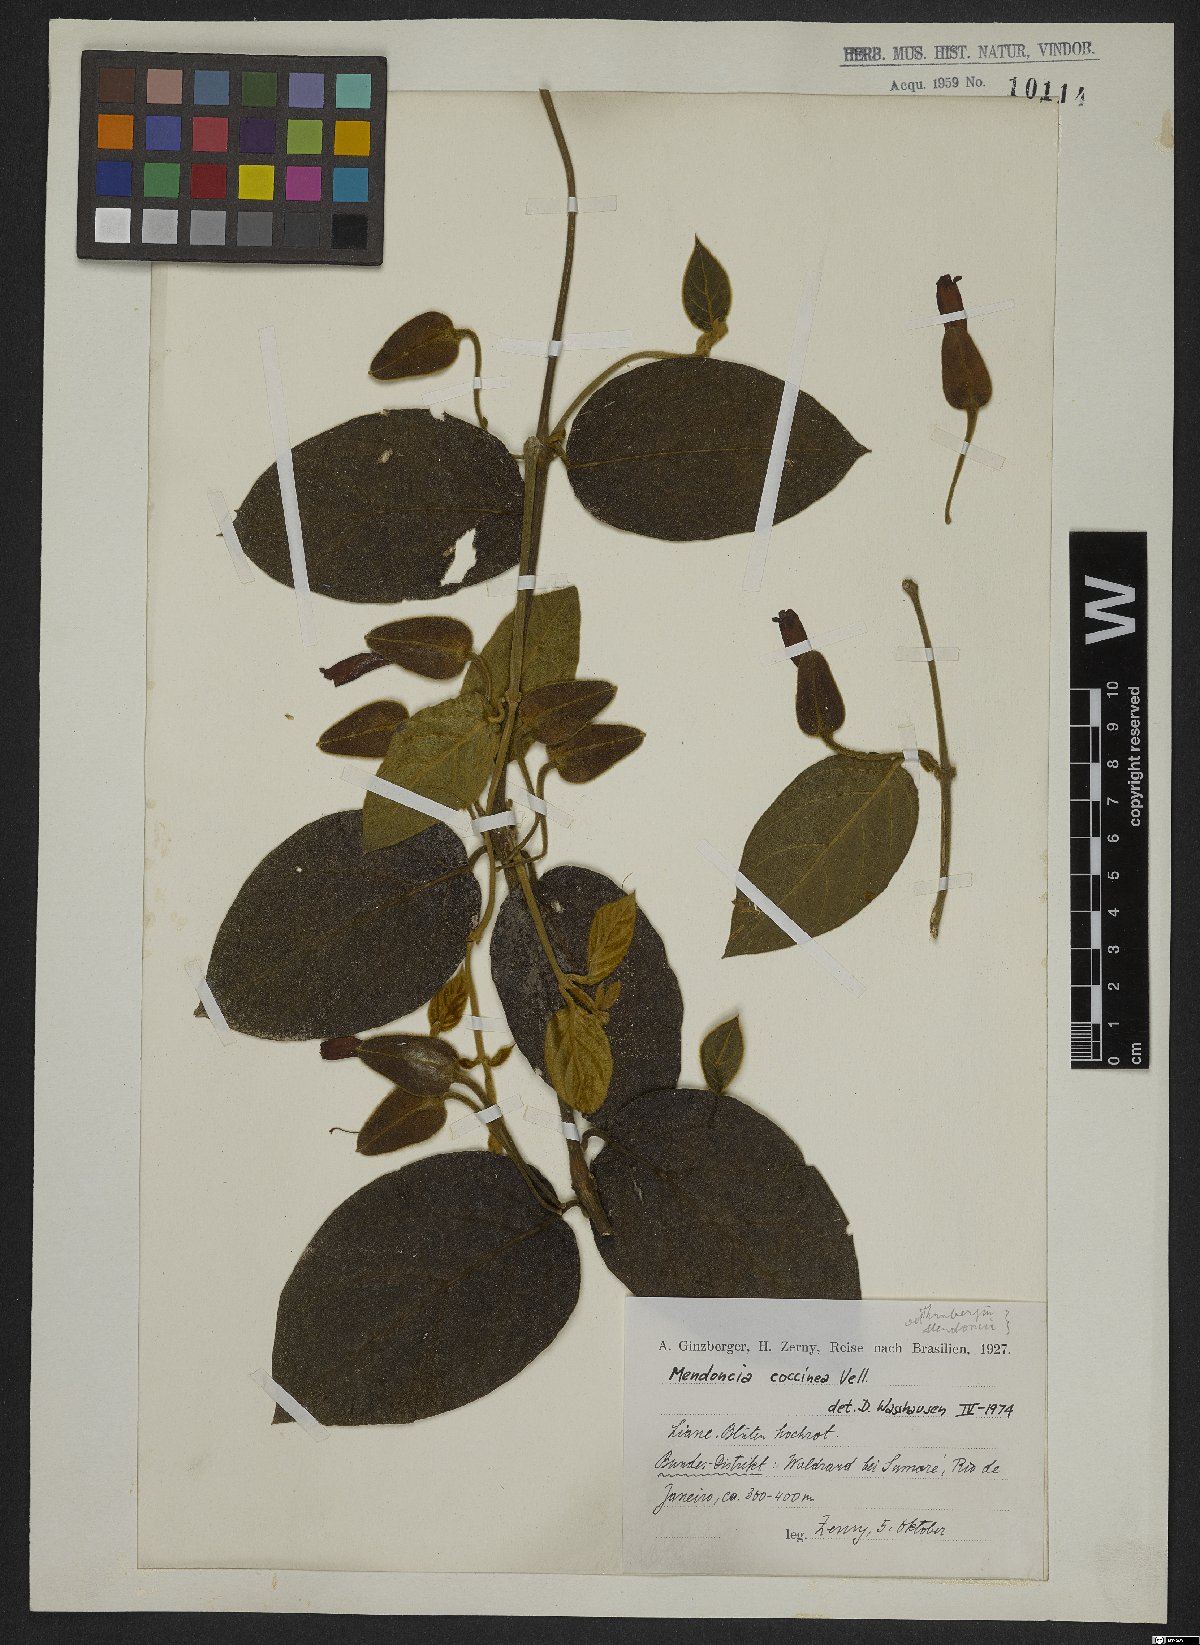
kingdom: Plantae
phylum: Tracheophyta
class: Magnoliopsida
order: Lamiales
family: Acanthaceae
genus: Mendoncia
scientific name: Mendoncia coccinea
